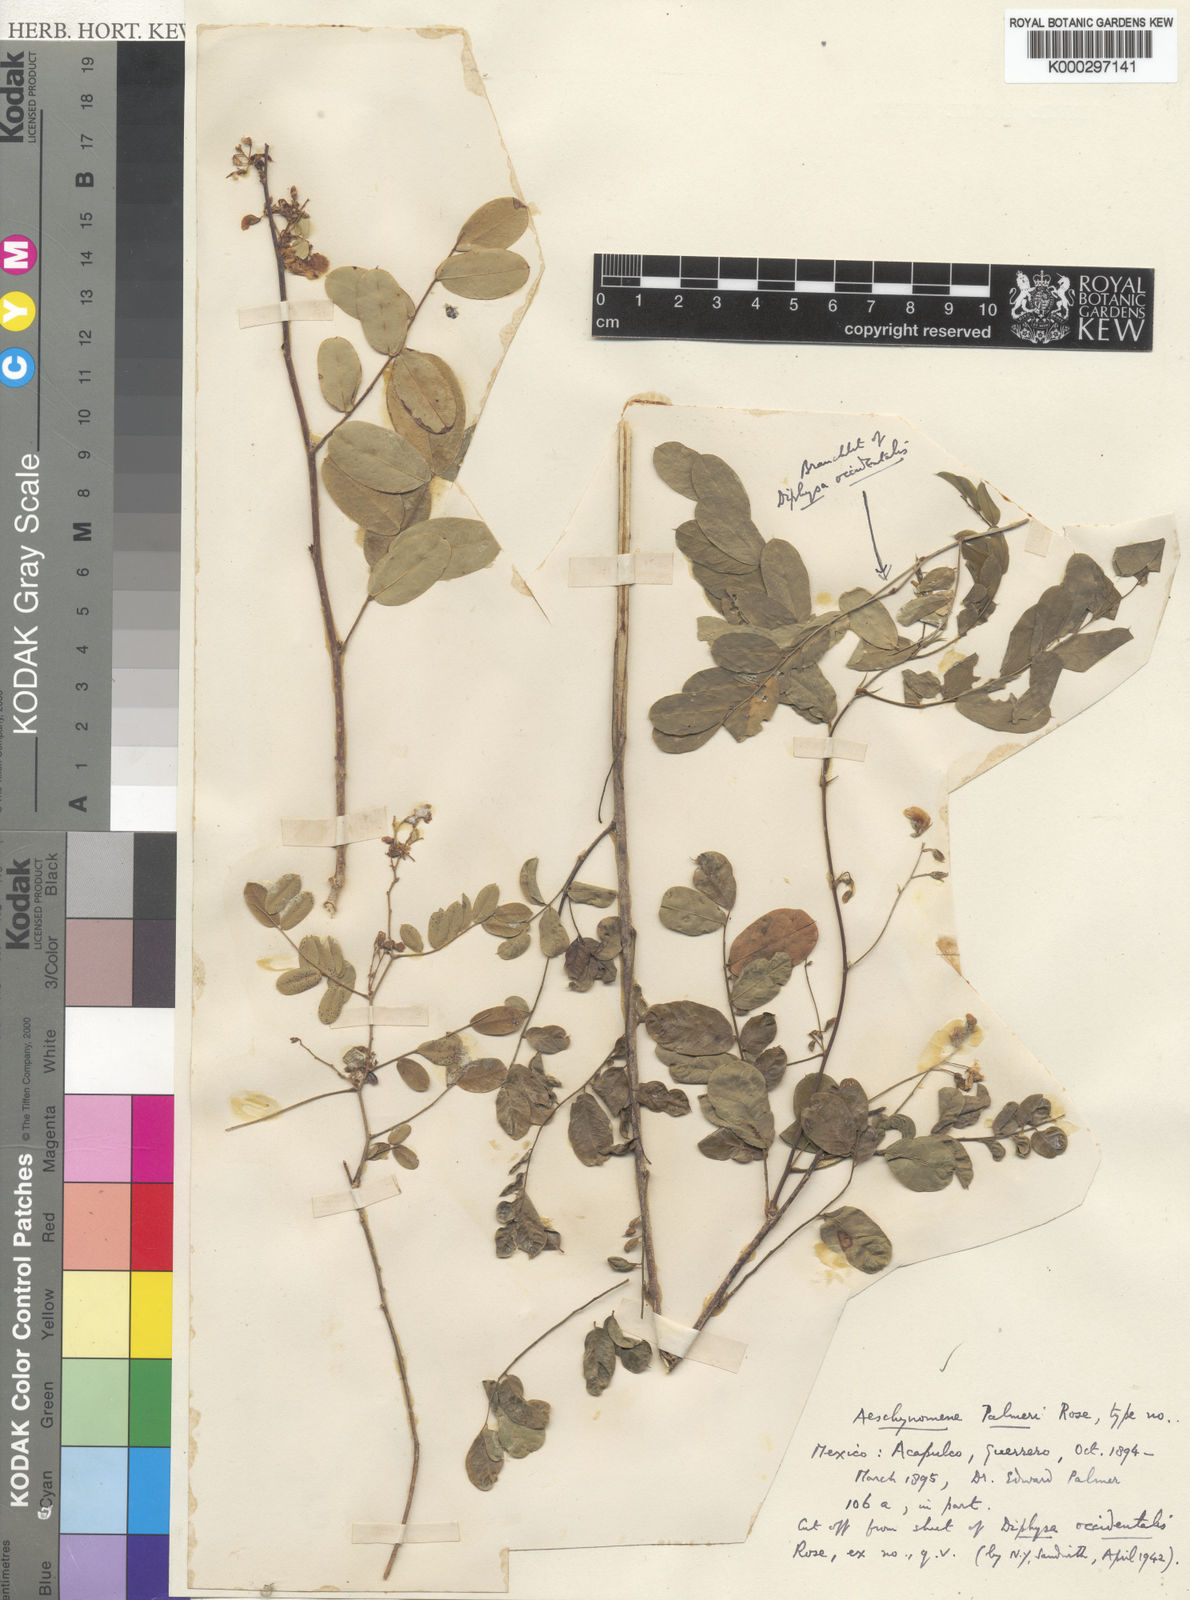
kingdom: Plantae
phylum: Tracheophyta
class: Magnoliopsida
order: Fabales
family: Fabaceae
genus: Ctenodon
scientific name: Ctenodon palmeri
